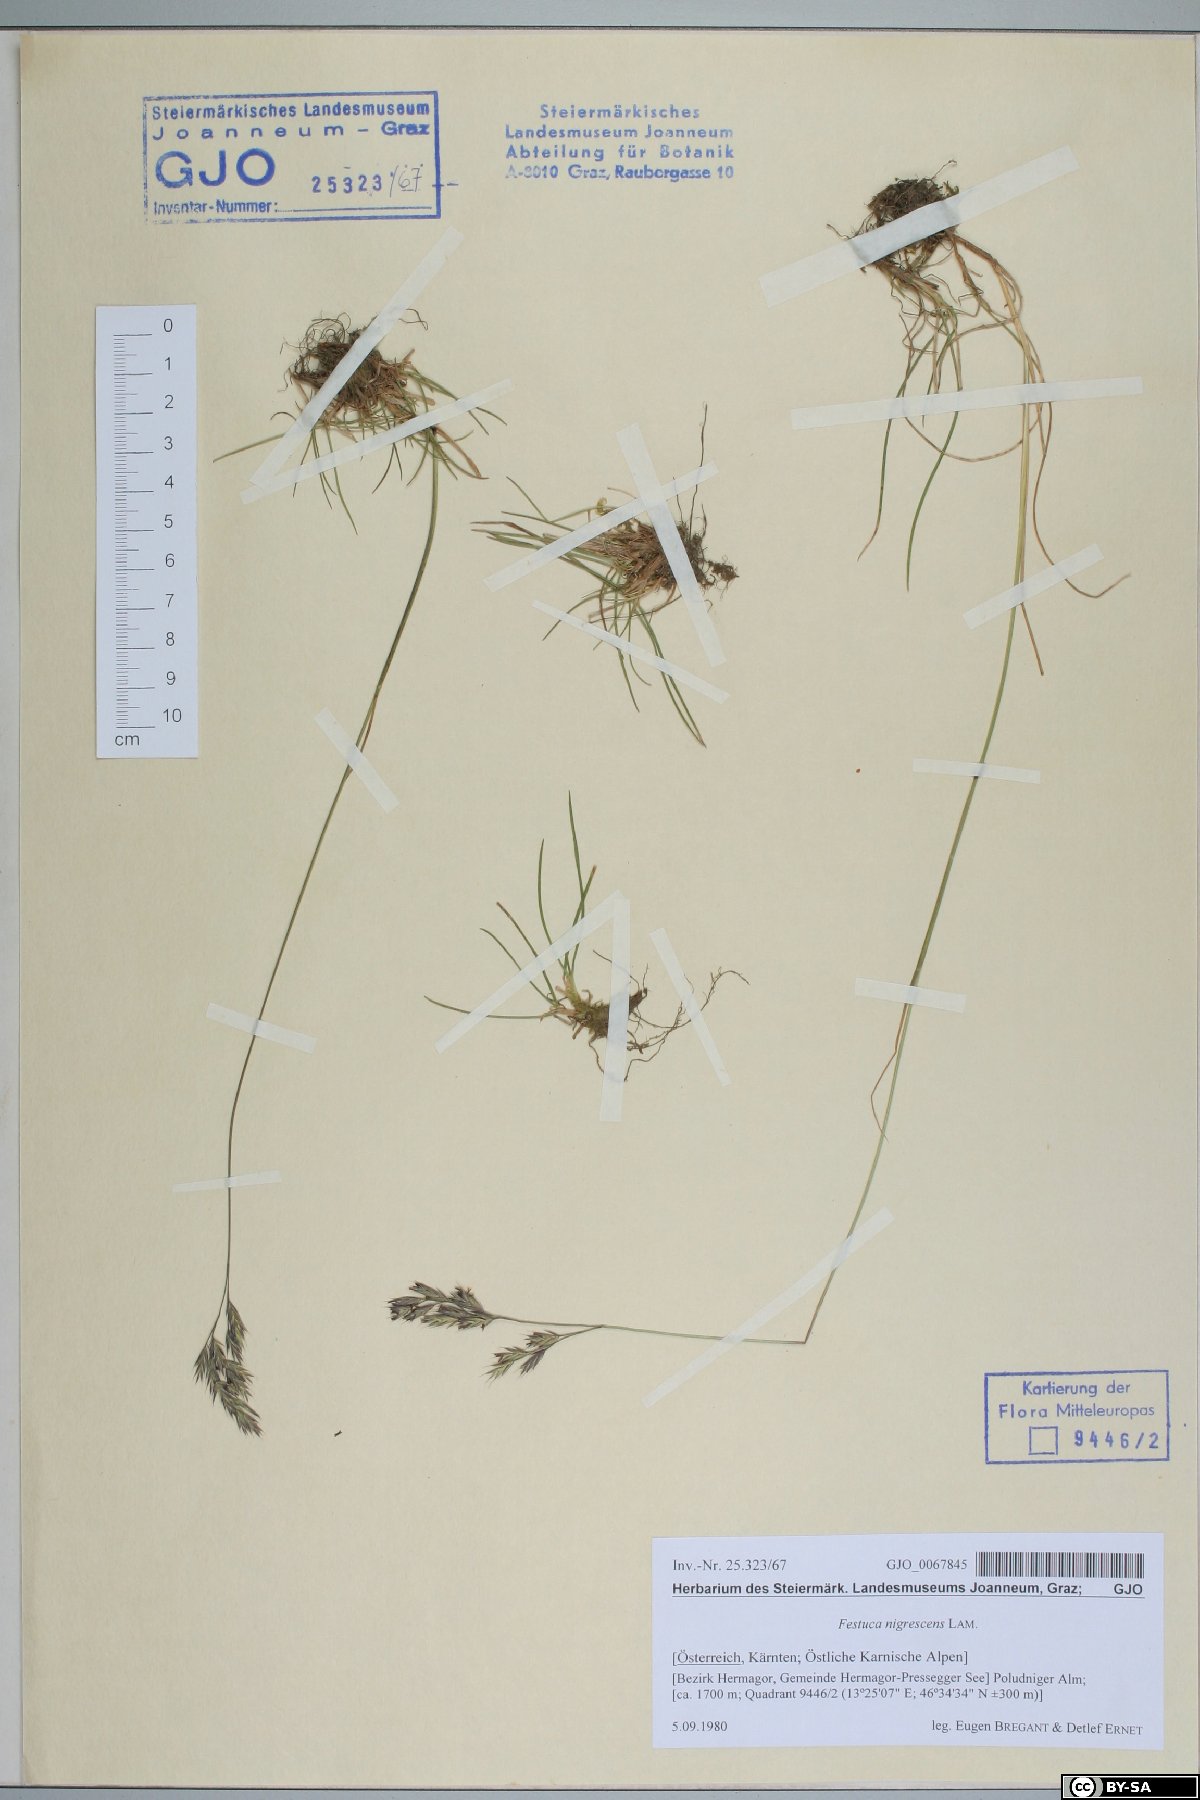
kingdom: Plantae
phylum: Tracheophyta
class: Liliopsida
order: Poales
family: Poaceae
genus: Festuca
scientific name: Festuca nigrescens
